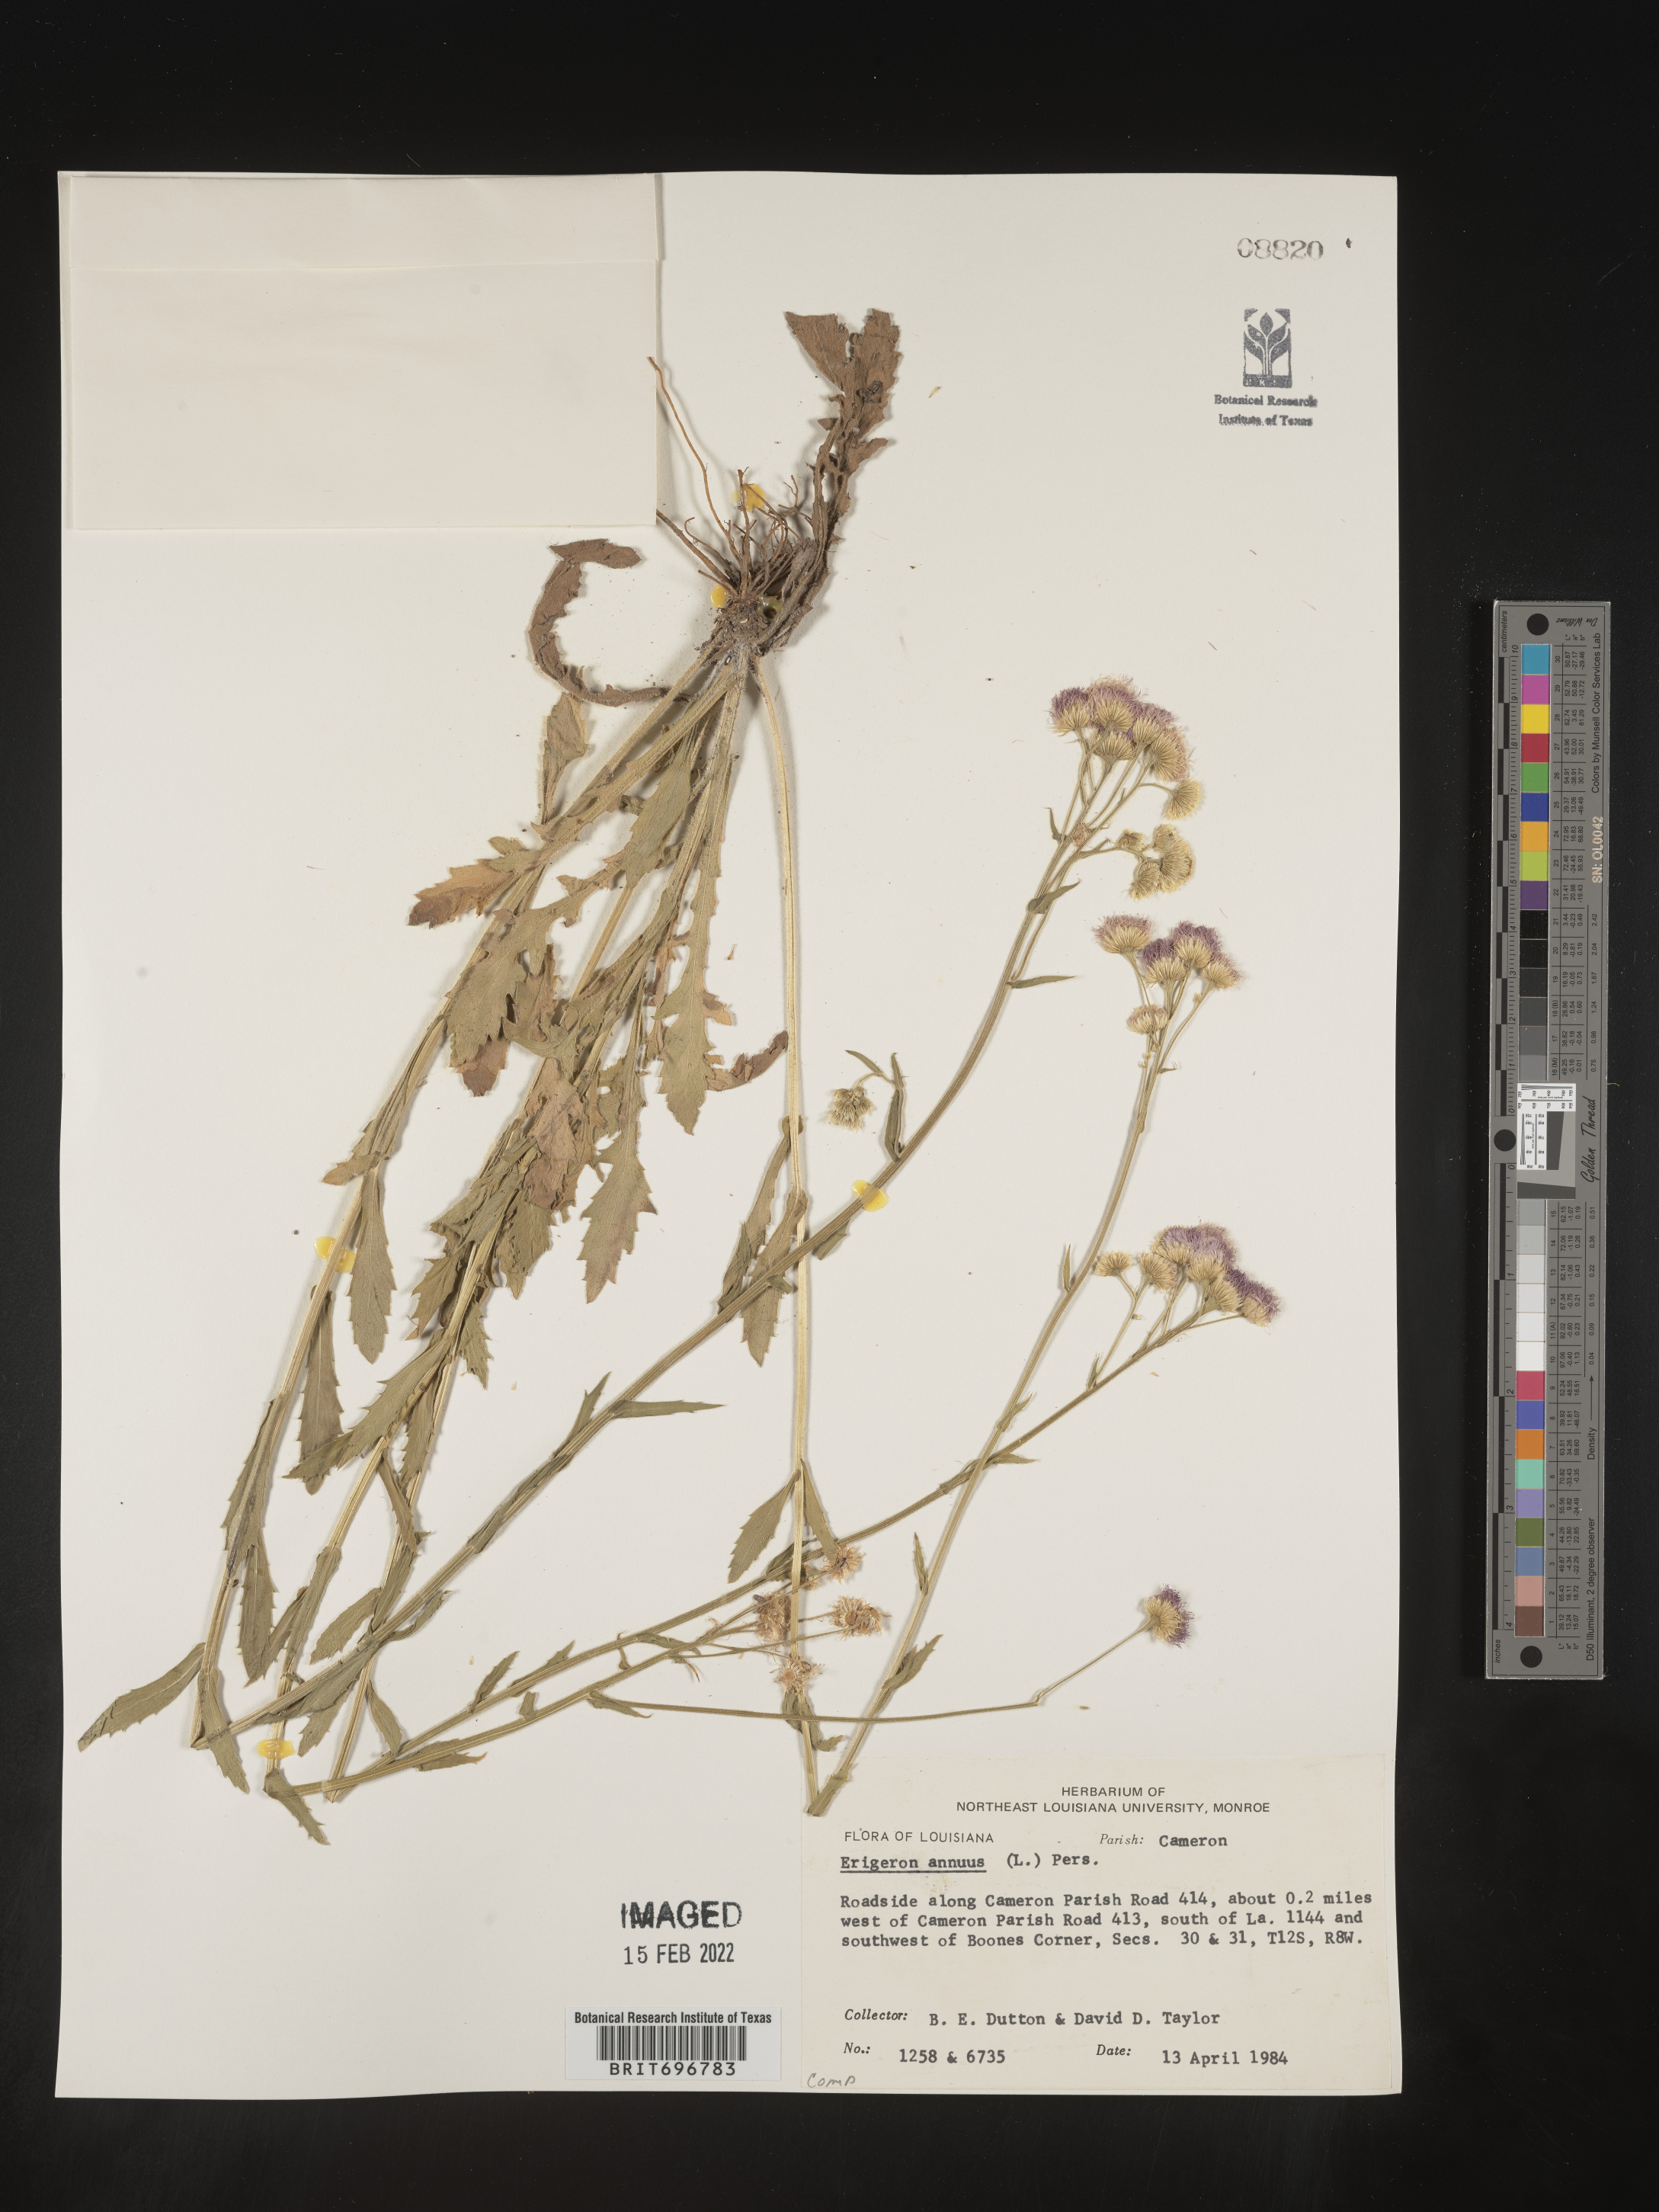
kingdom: Plantae
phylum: Tracheophyta
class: Magnoliopsida
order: Asterales
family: Asteraceae
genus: Erigeron
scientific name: Erigeron annuus
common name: Tall fleabane
